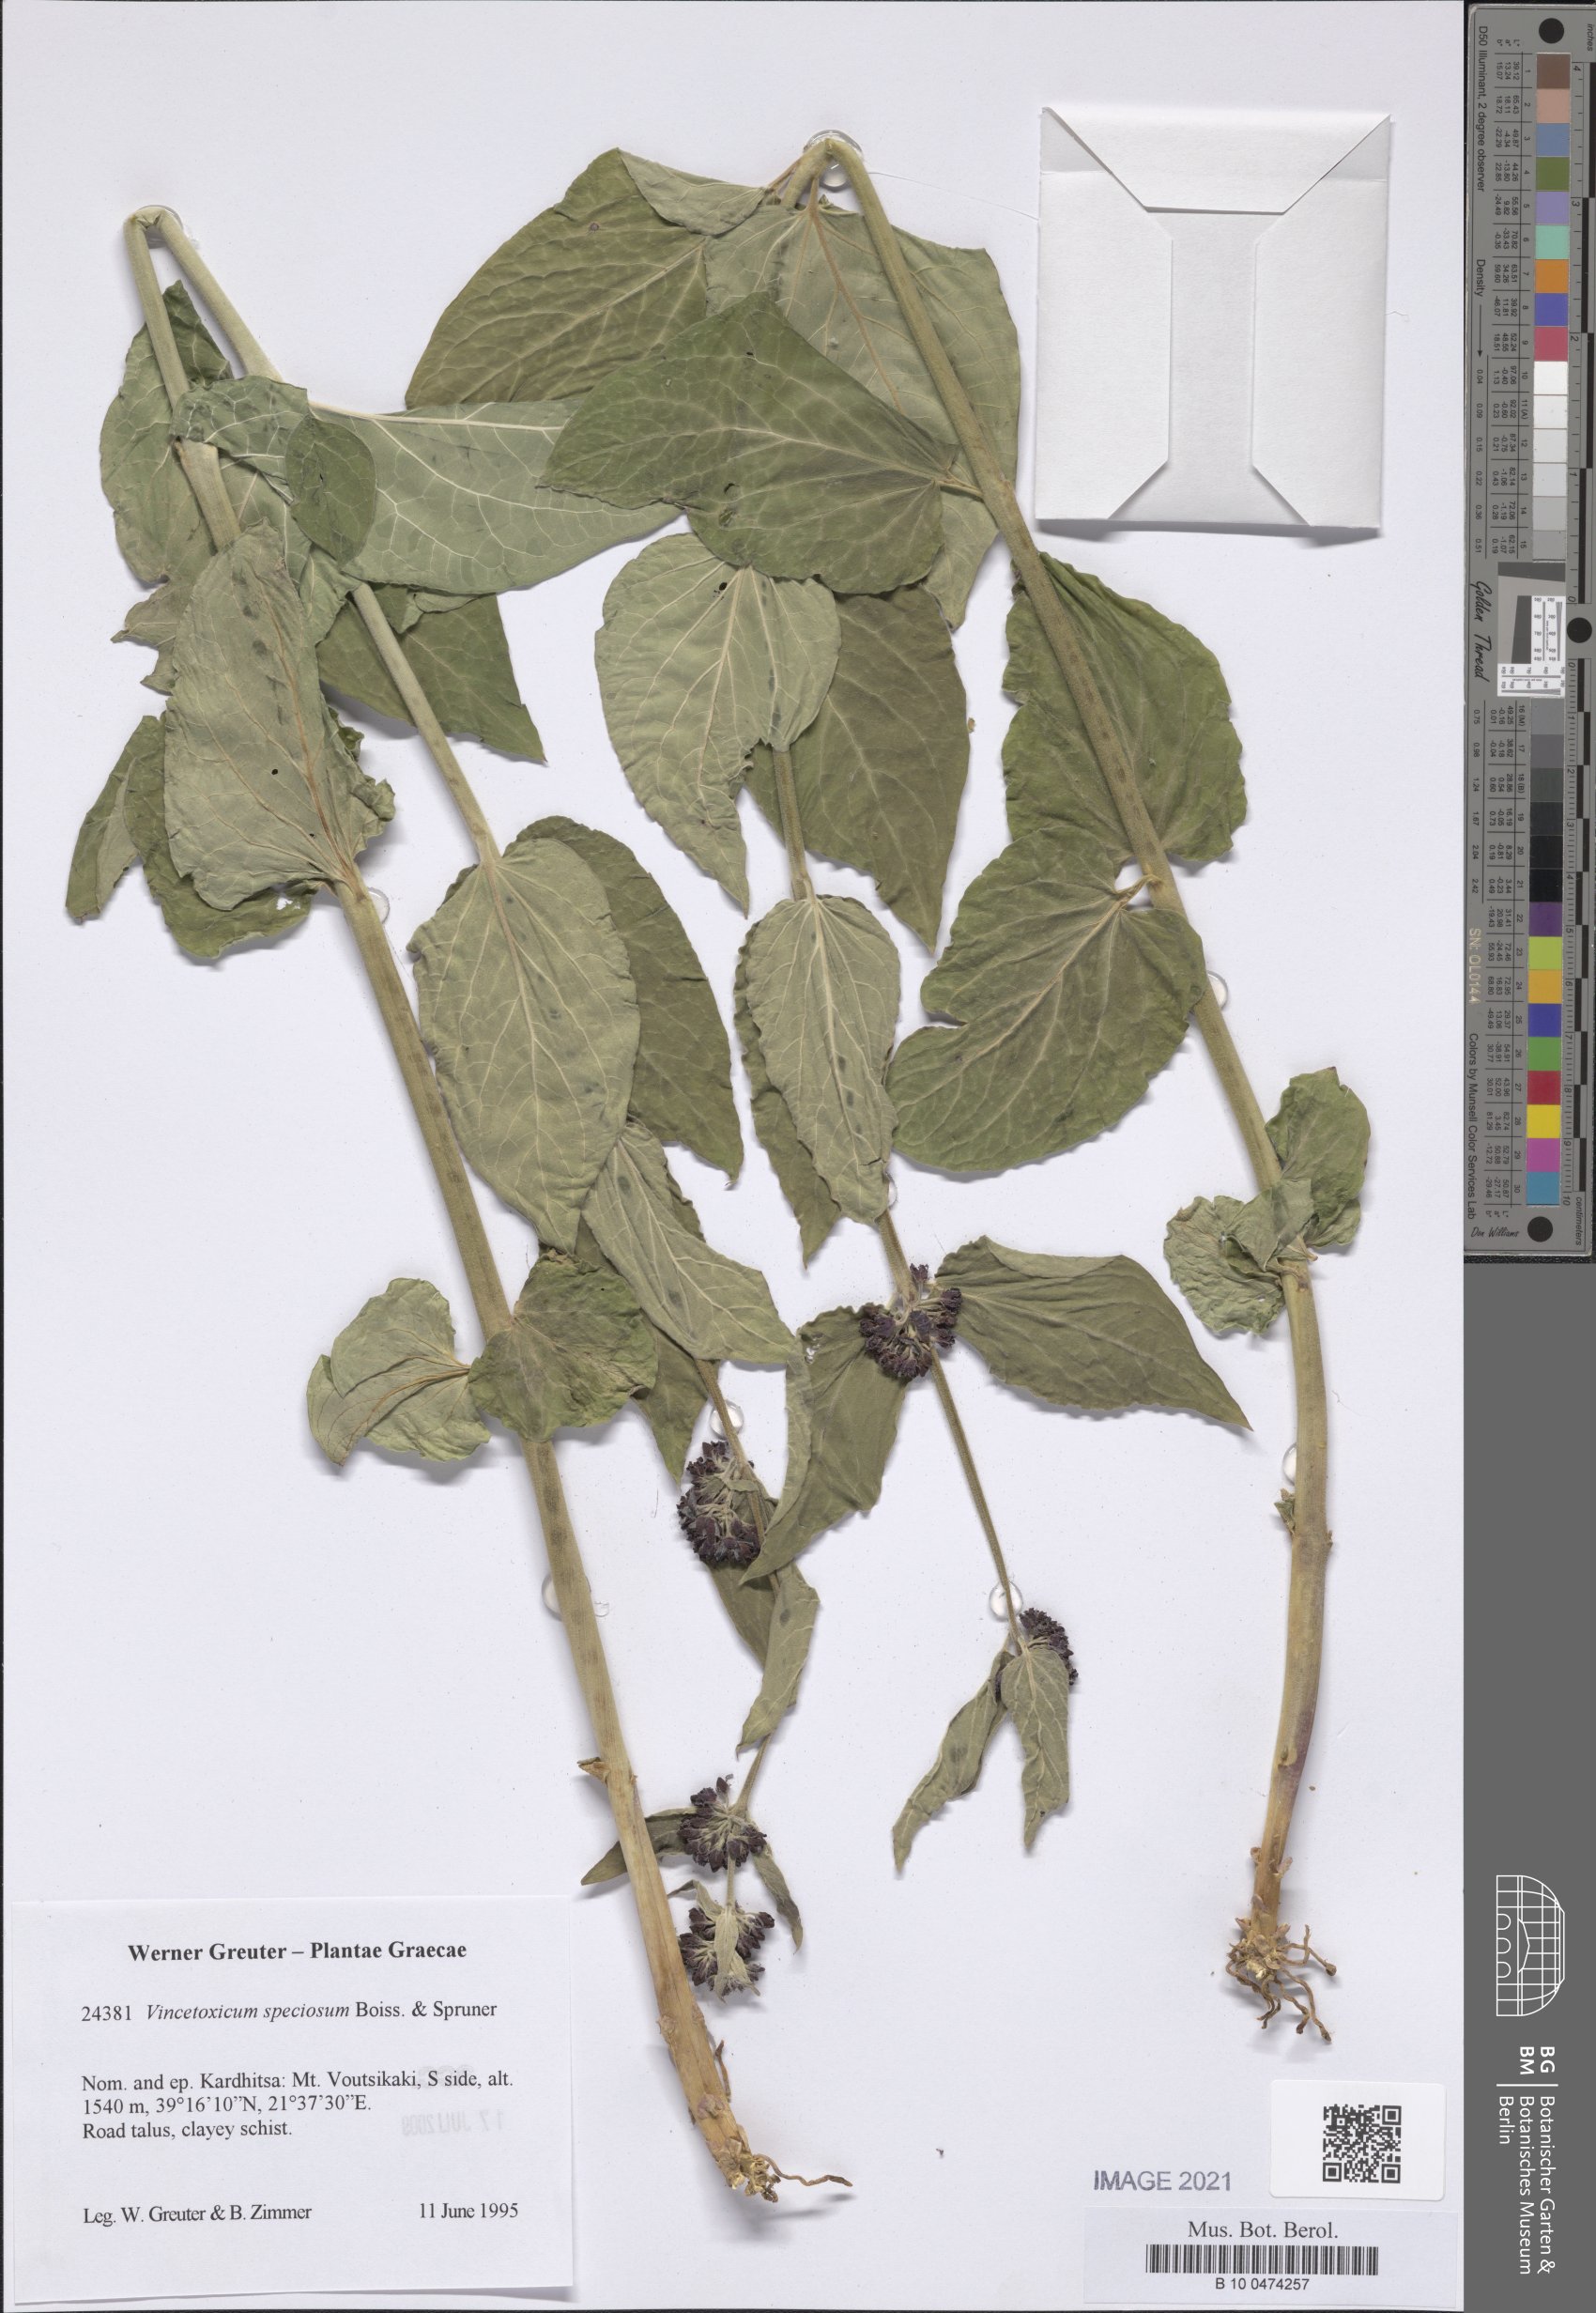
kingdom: Plantae
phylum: Tracheophyta
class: Magnoliopsida
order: Gentianales
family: Apocynaceae
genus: Vincetoxicum
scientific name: Vincetoxicum speciosum
